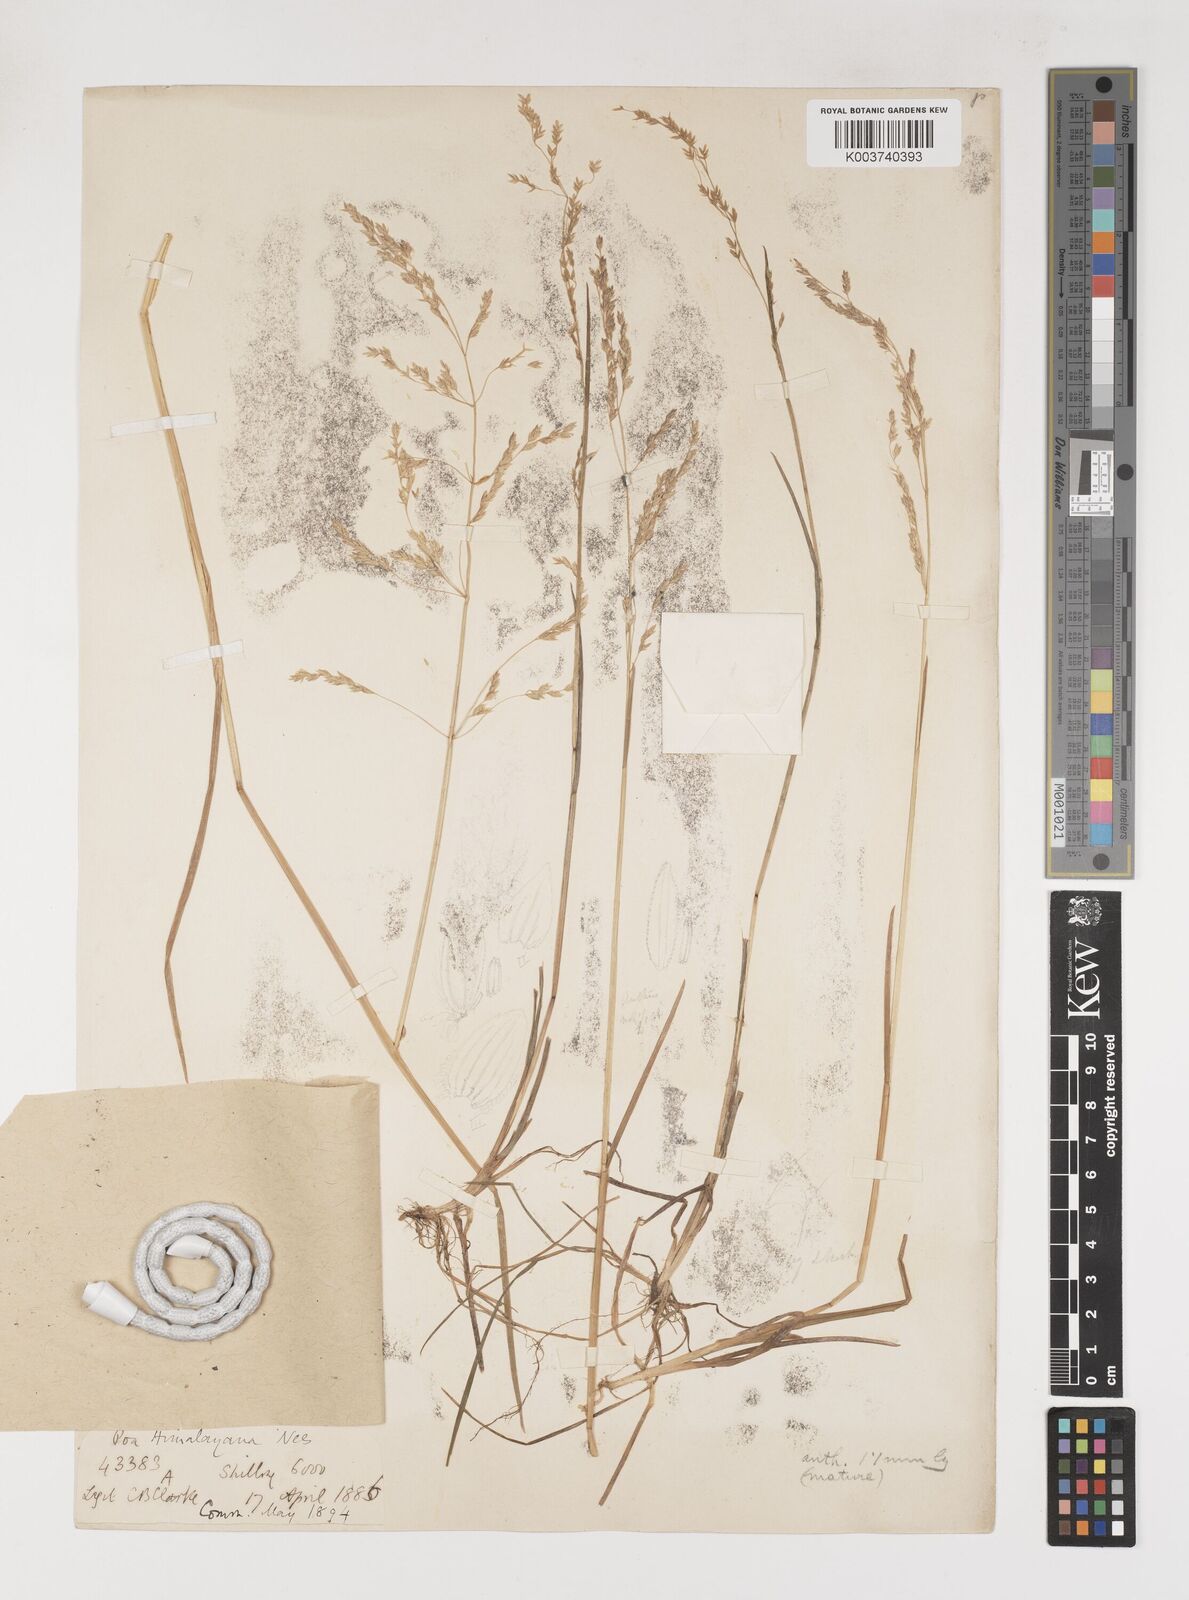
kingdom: Plantae
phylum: Tracheophyta
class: Liliopsida
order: Poales
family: Poaceae
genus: Poa
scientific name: Poa khasiana
